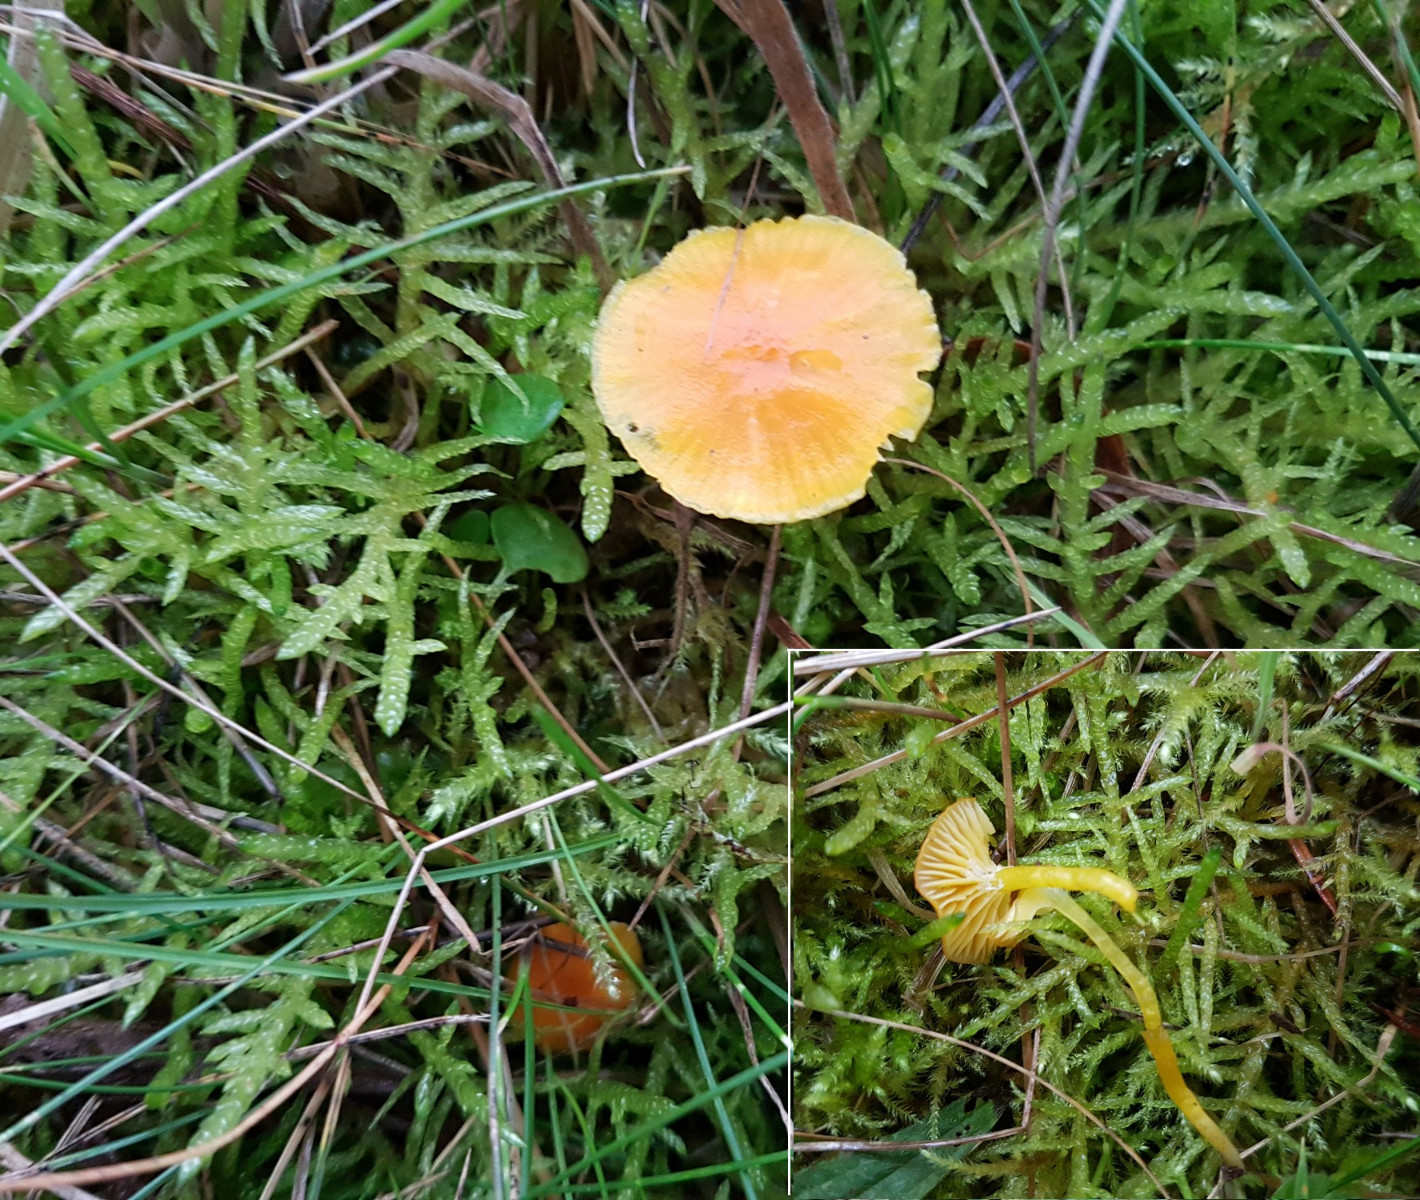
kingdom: Fungi
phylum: Basidiomycota
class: Agaricomycetes
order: Agaricales
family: Hygrophoraceae
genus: Hygrocybe
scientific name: Hygrocybe ceracea
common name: voksgul vokshat
